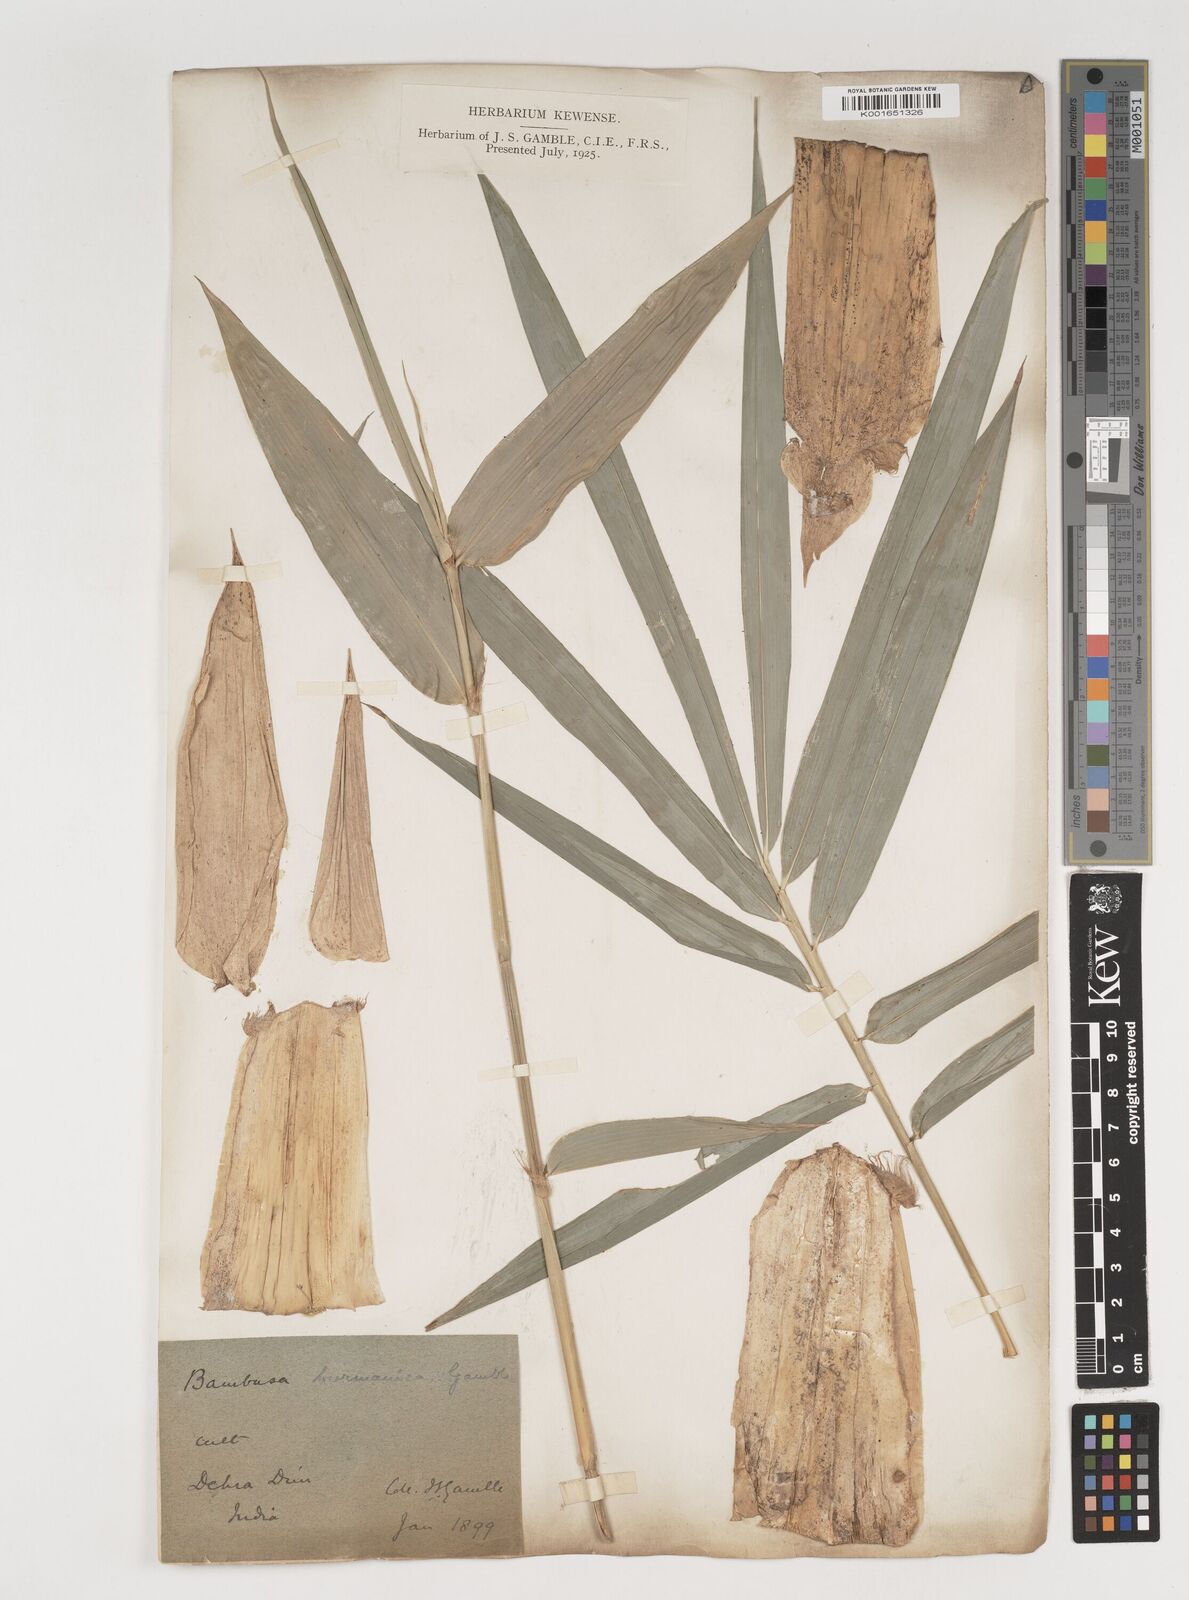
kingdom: Plantae
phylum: Tracheophyta
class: Liliopsida
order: Poales
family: Poaceae
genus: Bambusa
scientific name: Bambusa burmanica
